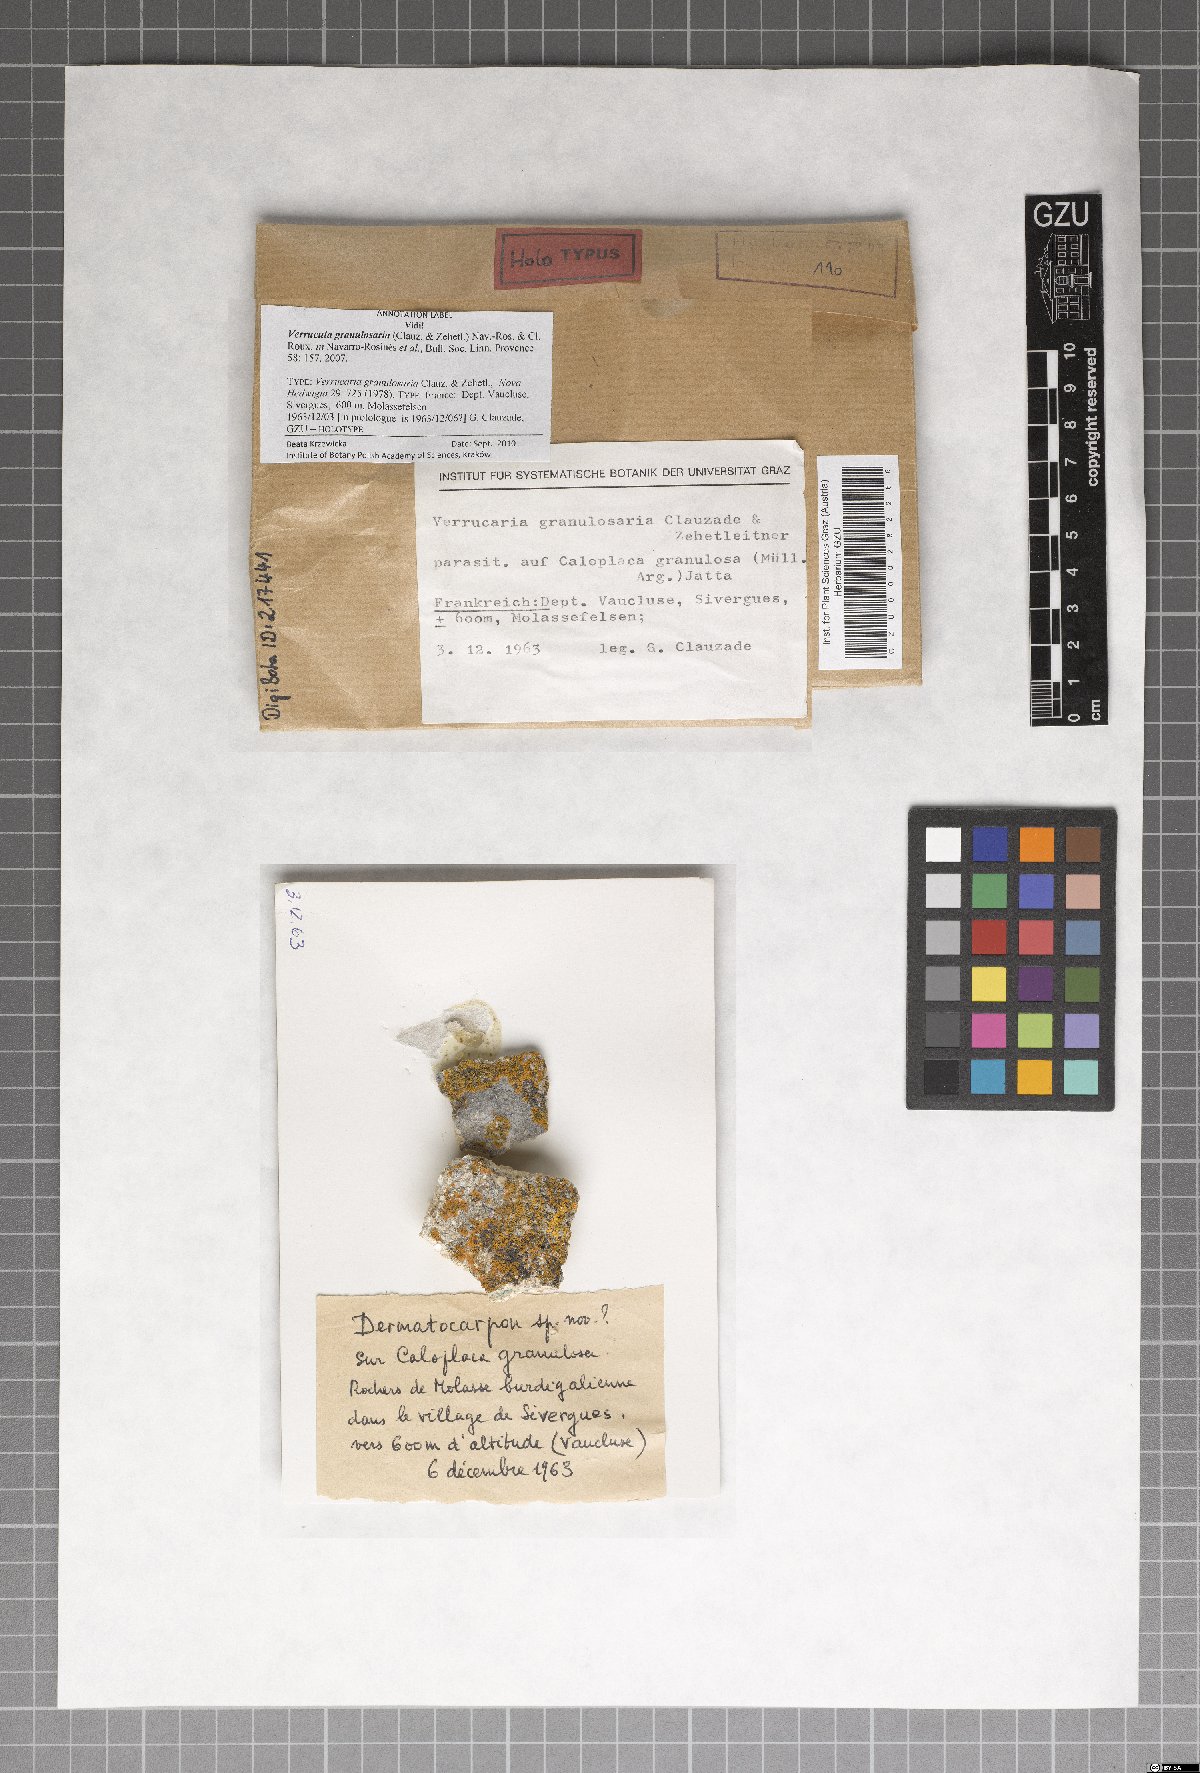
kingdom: Fungi
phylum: Ascomycota
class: Eurotiomycetes
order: Verrucariales
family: Verrucariaceae
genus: Verrucaria
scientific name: Verrucaria latericola
